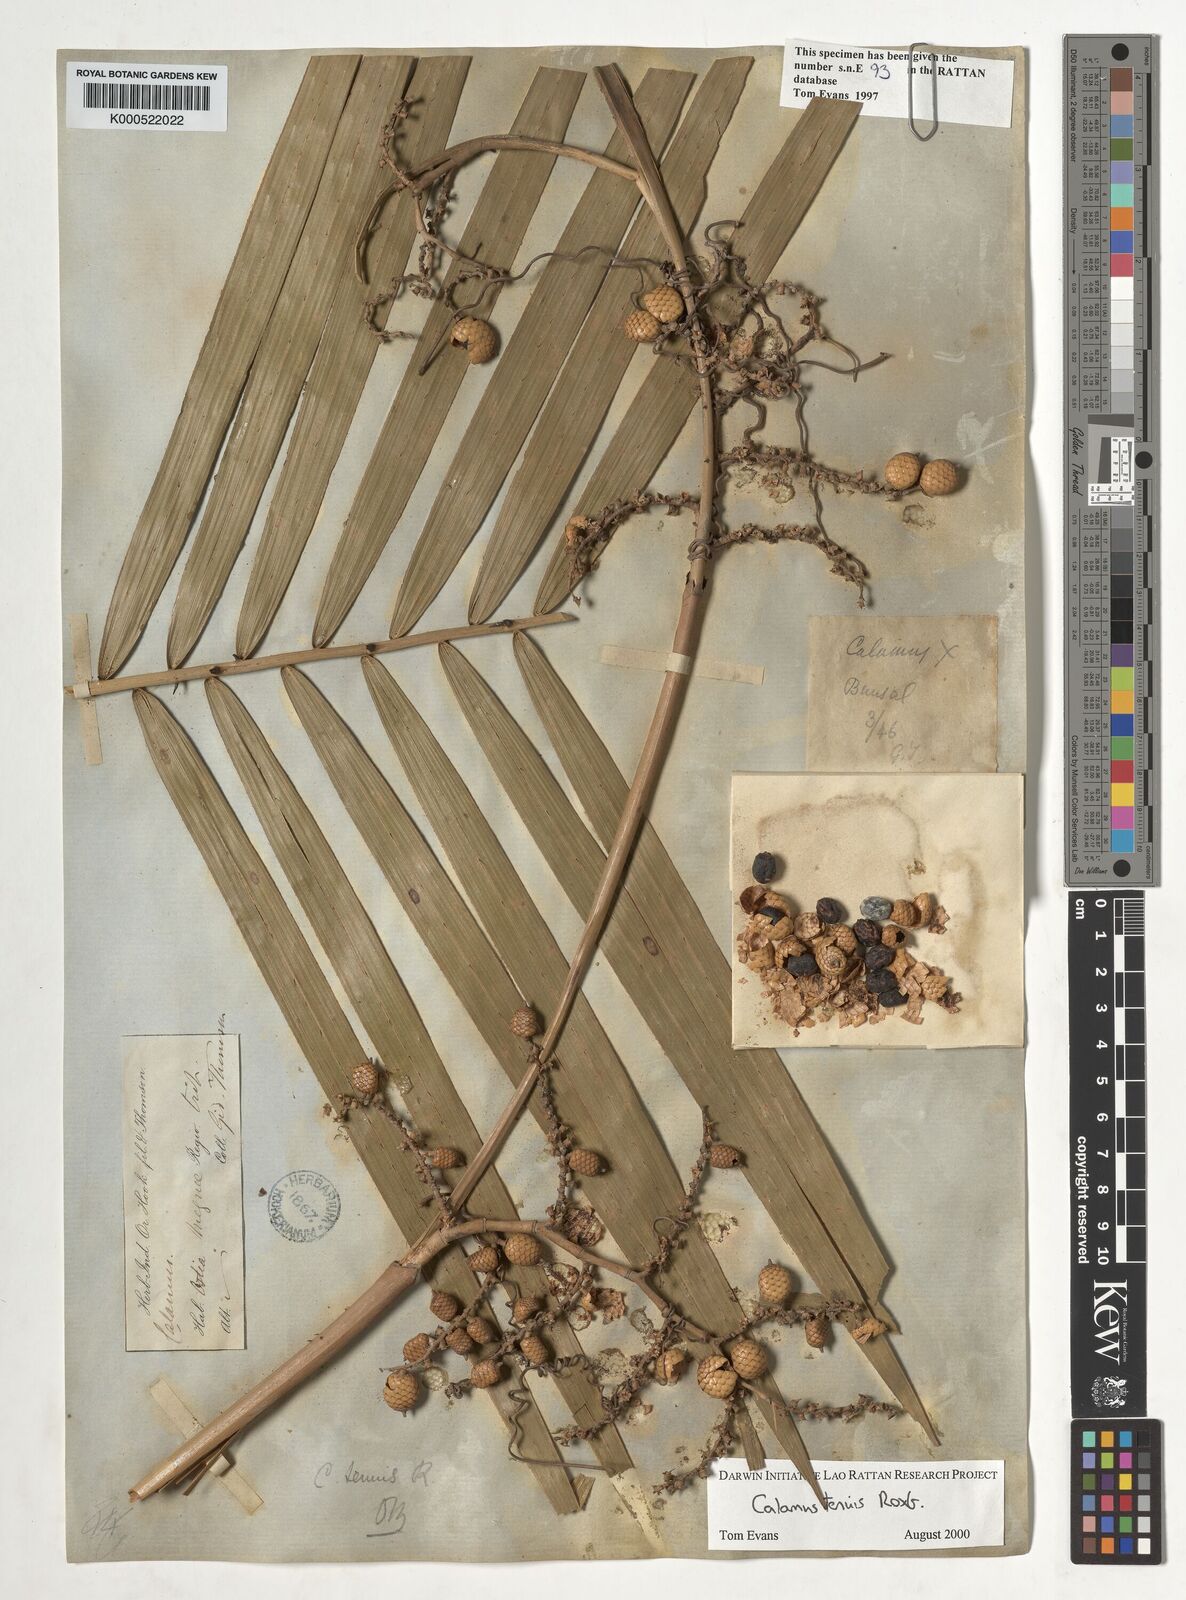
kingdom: Plantae
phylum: Tracheophyta
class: Liliopsida
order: Arecales
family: Arecaceae
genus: Calamus
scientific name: Calamus tenuis
